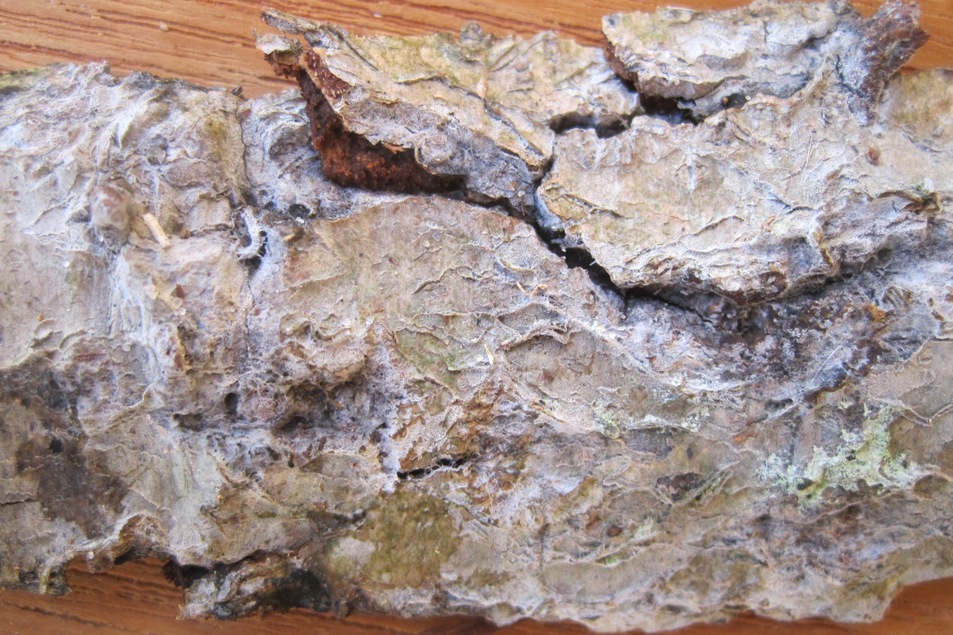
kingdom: Fungi
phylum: Basidiomycota
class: Agaricomycetes
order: Cantharellales
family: Hydnaceae
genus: Sistotrema
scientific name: Sistotrema brinkmannii
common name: bønnesporet kroneskorpe
